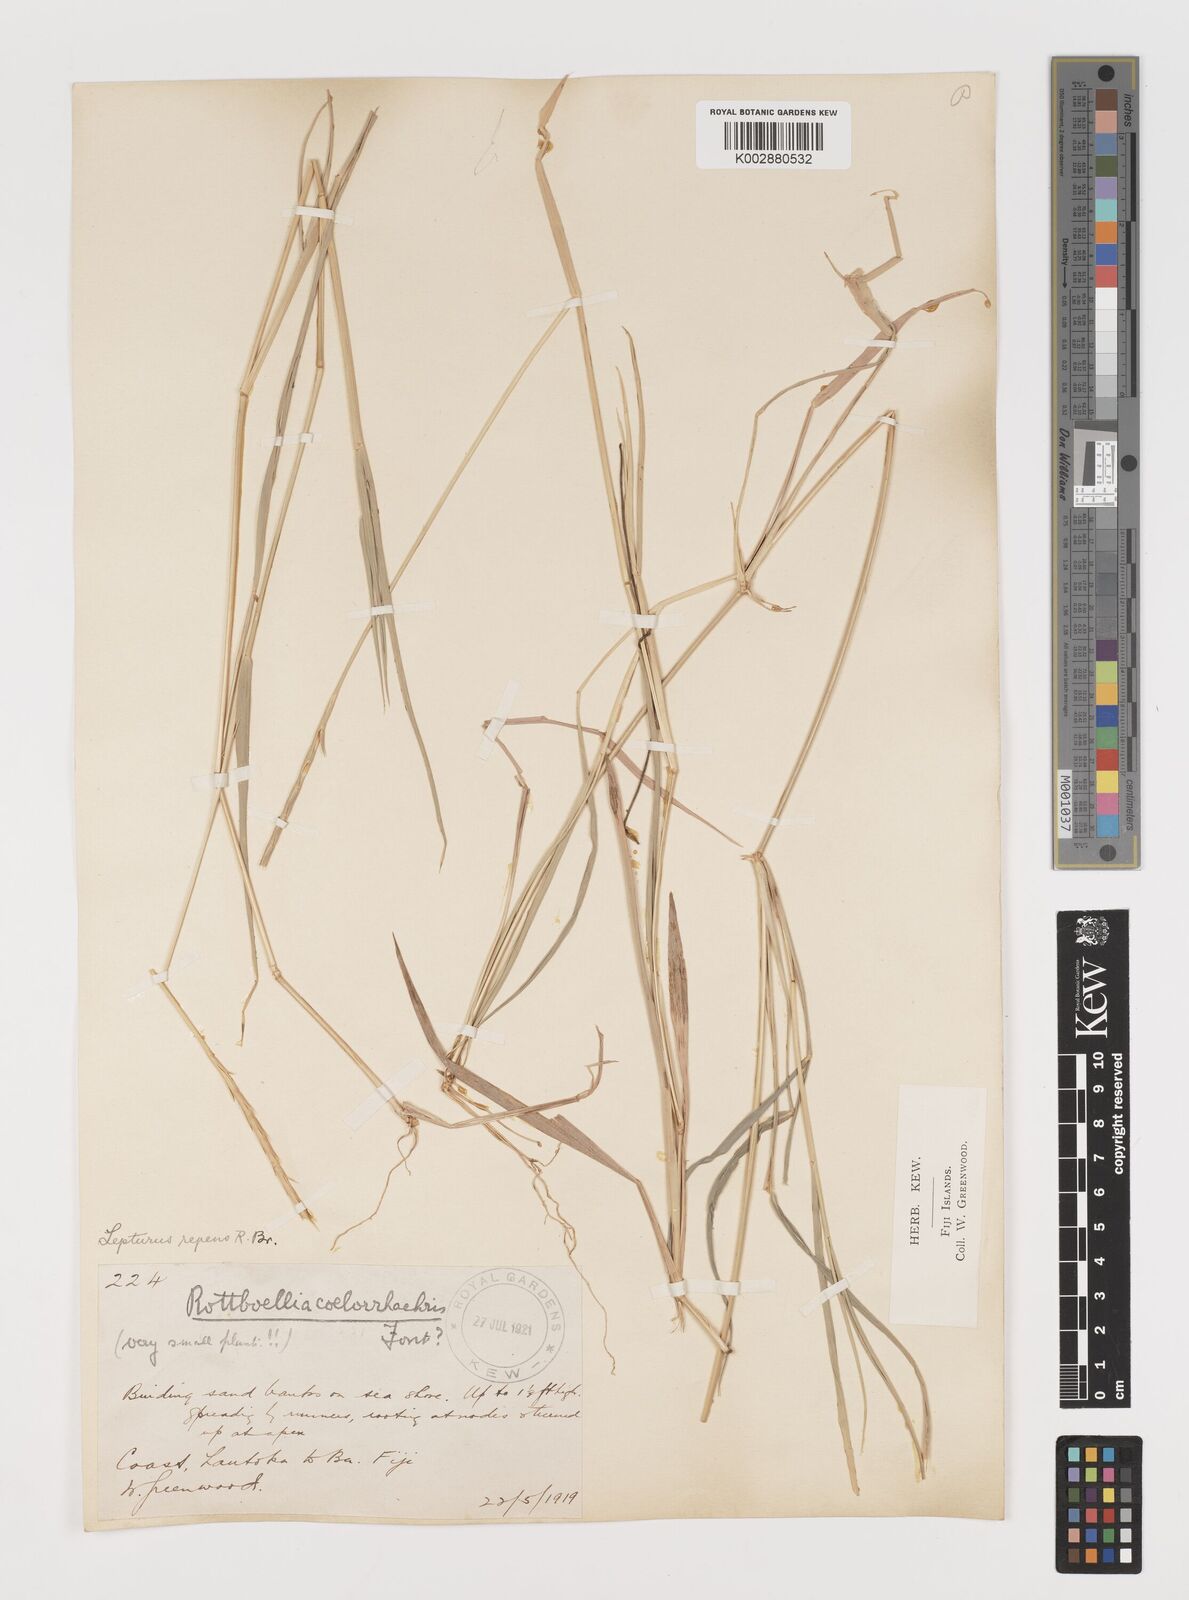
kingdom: Plantae
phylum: Tracheophyta
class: Liliopsida
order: Poales
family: Poaceae
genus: Lepturus
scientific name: Lepturus repens
